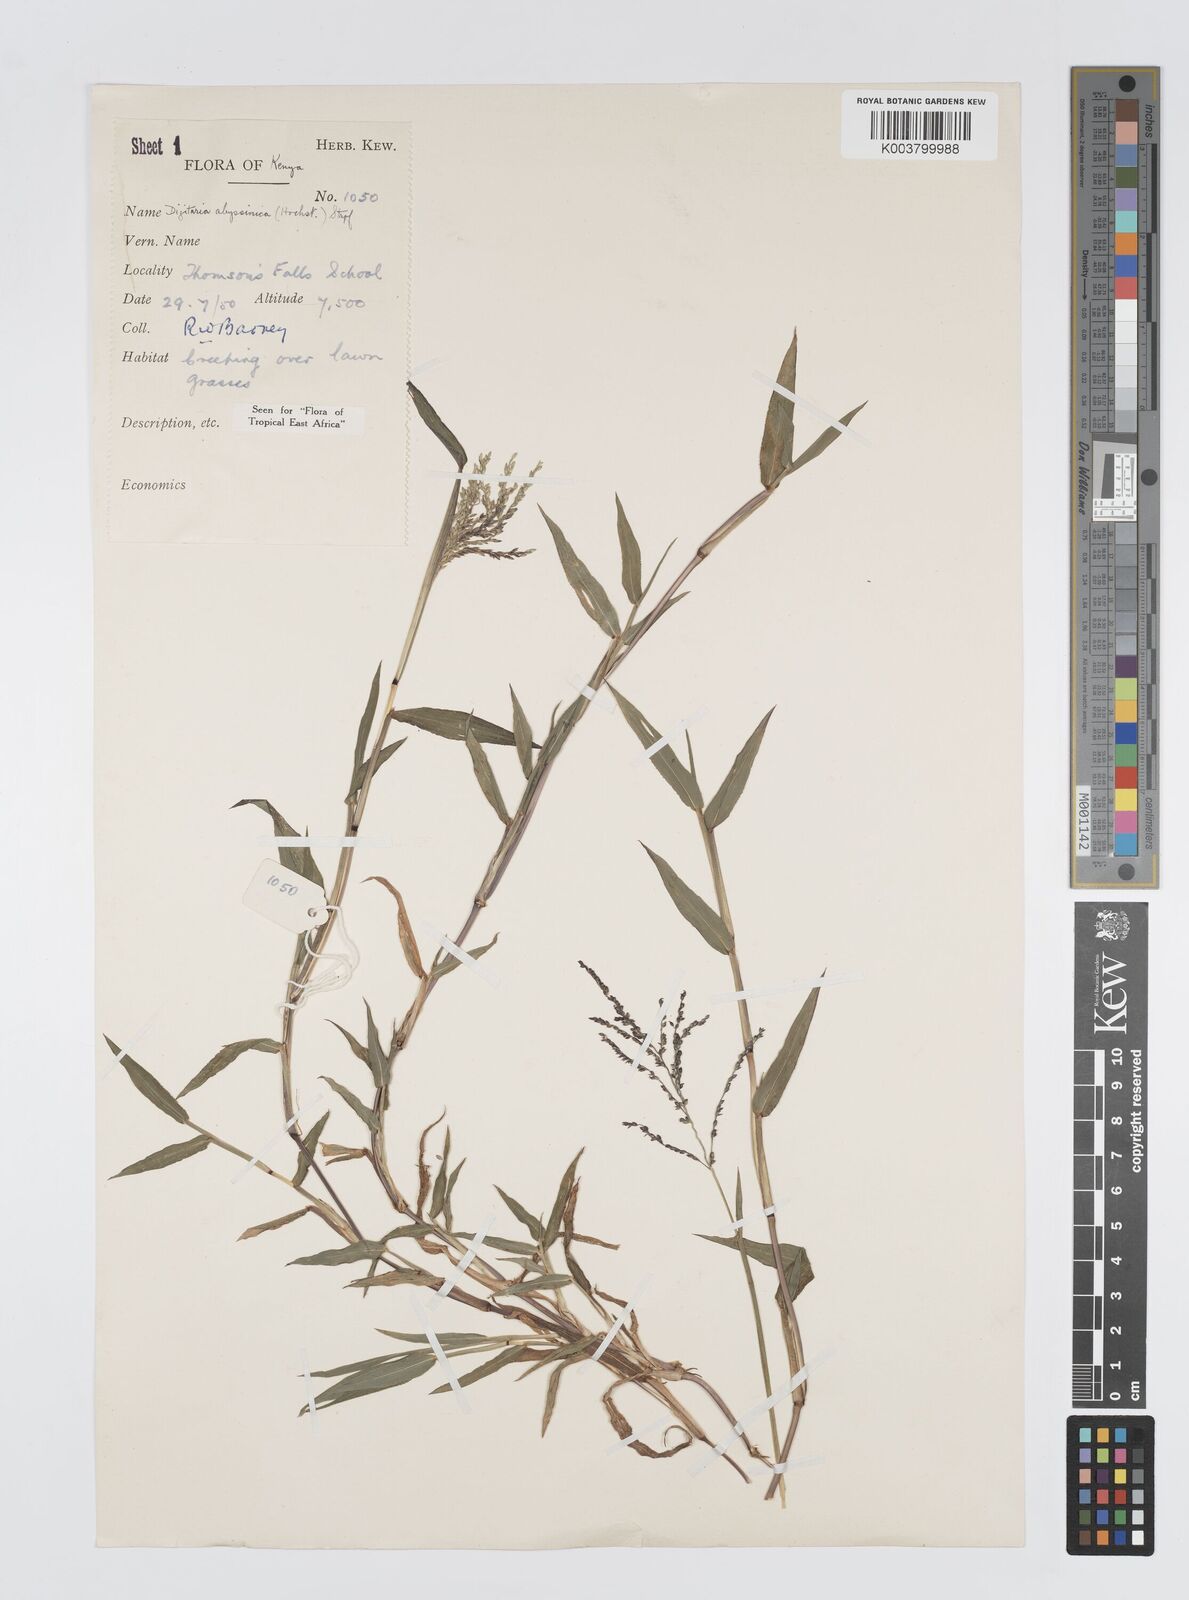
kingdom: Plantae
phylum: Tracheophyta
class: Liliopsida
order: Poales
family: Poaceae
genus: Digitaria
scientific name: Digitaria abyssinica
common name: African couchgrass
